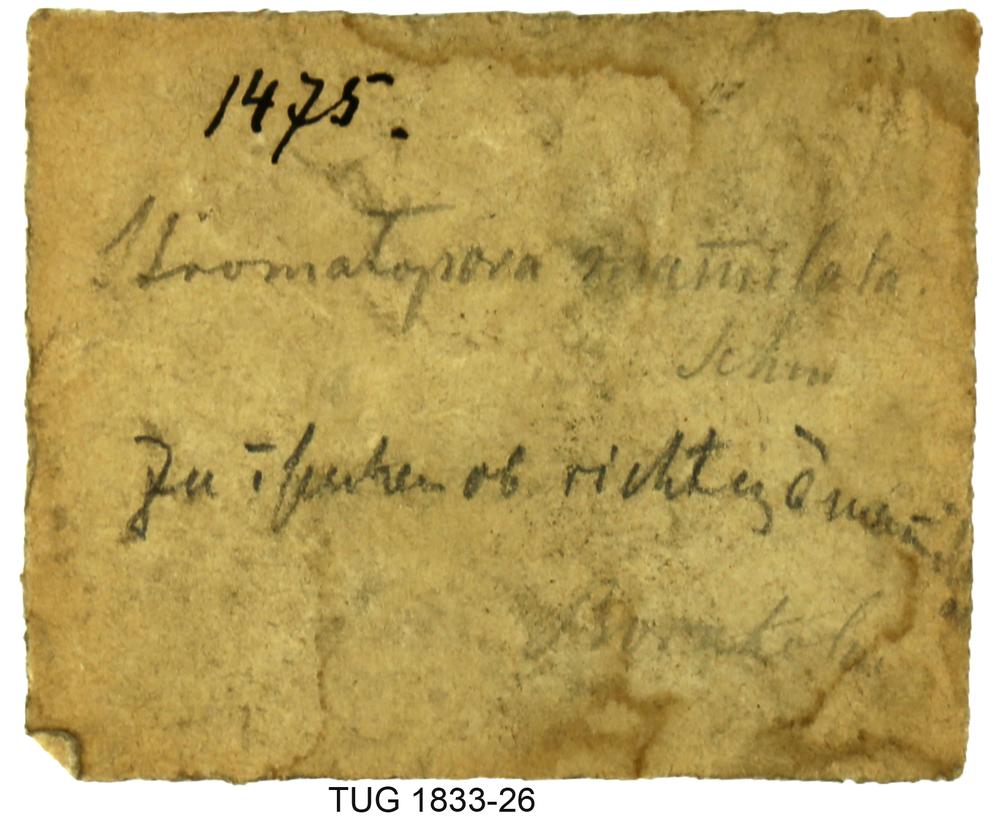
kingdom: Animalia
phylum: Porifera
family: Clathrodictyidae
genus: Clathrodictyon
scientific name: Clathrodictyon mammillatum
